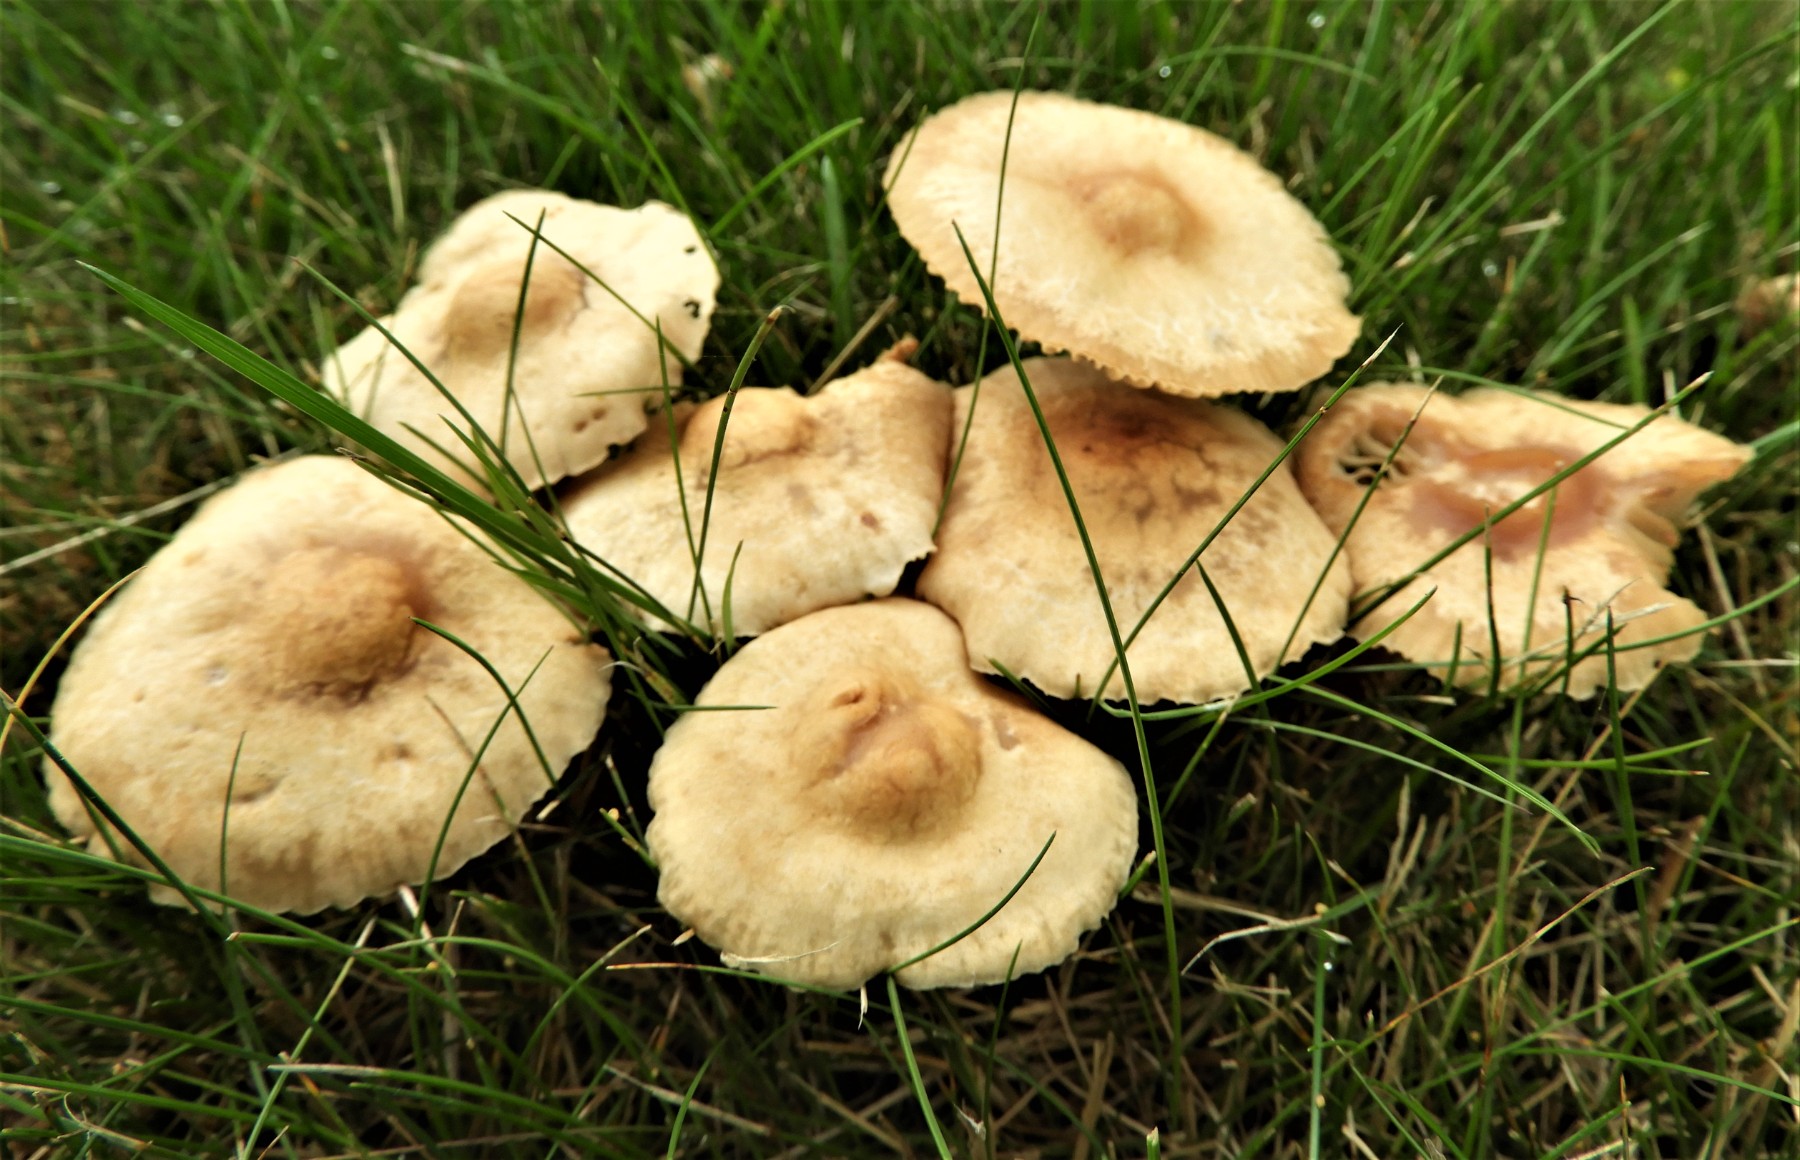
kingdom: Fungi
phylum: Basidiomycota
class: Agaricomycetes
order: Agaricales
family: Marasmiaceae
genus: Marasmius
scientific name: Marasmius oreades
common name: elledans-bruskhat
